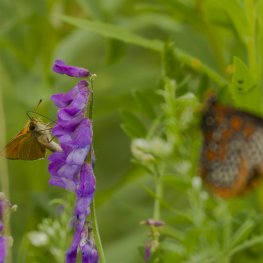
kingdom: Animalia
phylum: Arthropoda
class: Insecta
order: Lepidoptera
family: Hesperiidae
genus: Thymelicus
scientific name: Thymelicus lineola
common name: European Skipper
